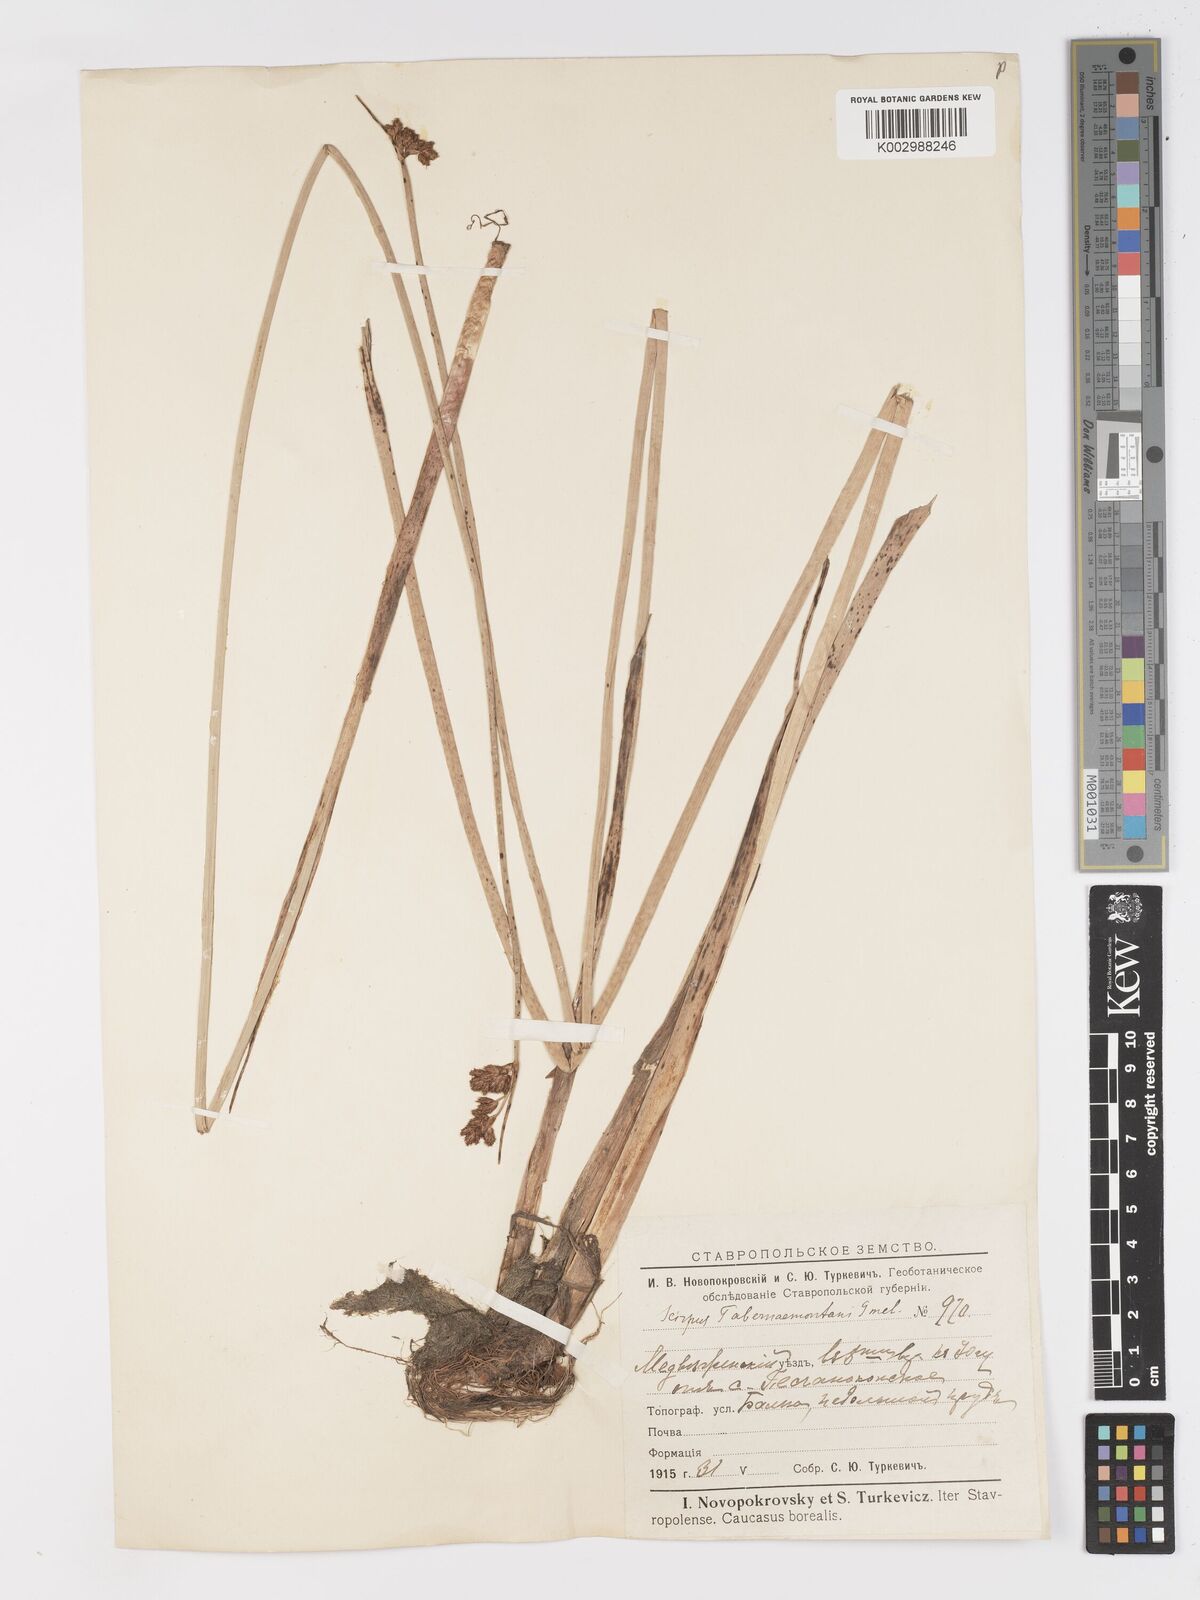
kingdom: Plantae
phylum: Tracheophyta
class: Liliopsida
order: Poales
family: Cyperaceae
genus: Schoenoplectus
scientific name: Schoenoplectus tabernaemontani
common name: Grey club-rush
